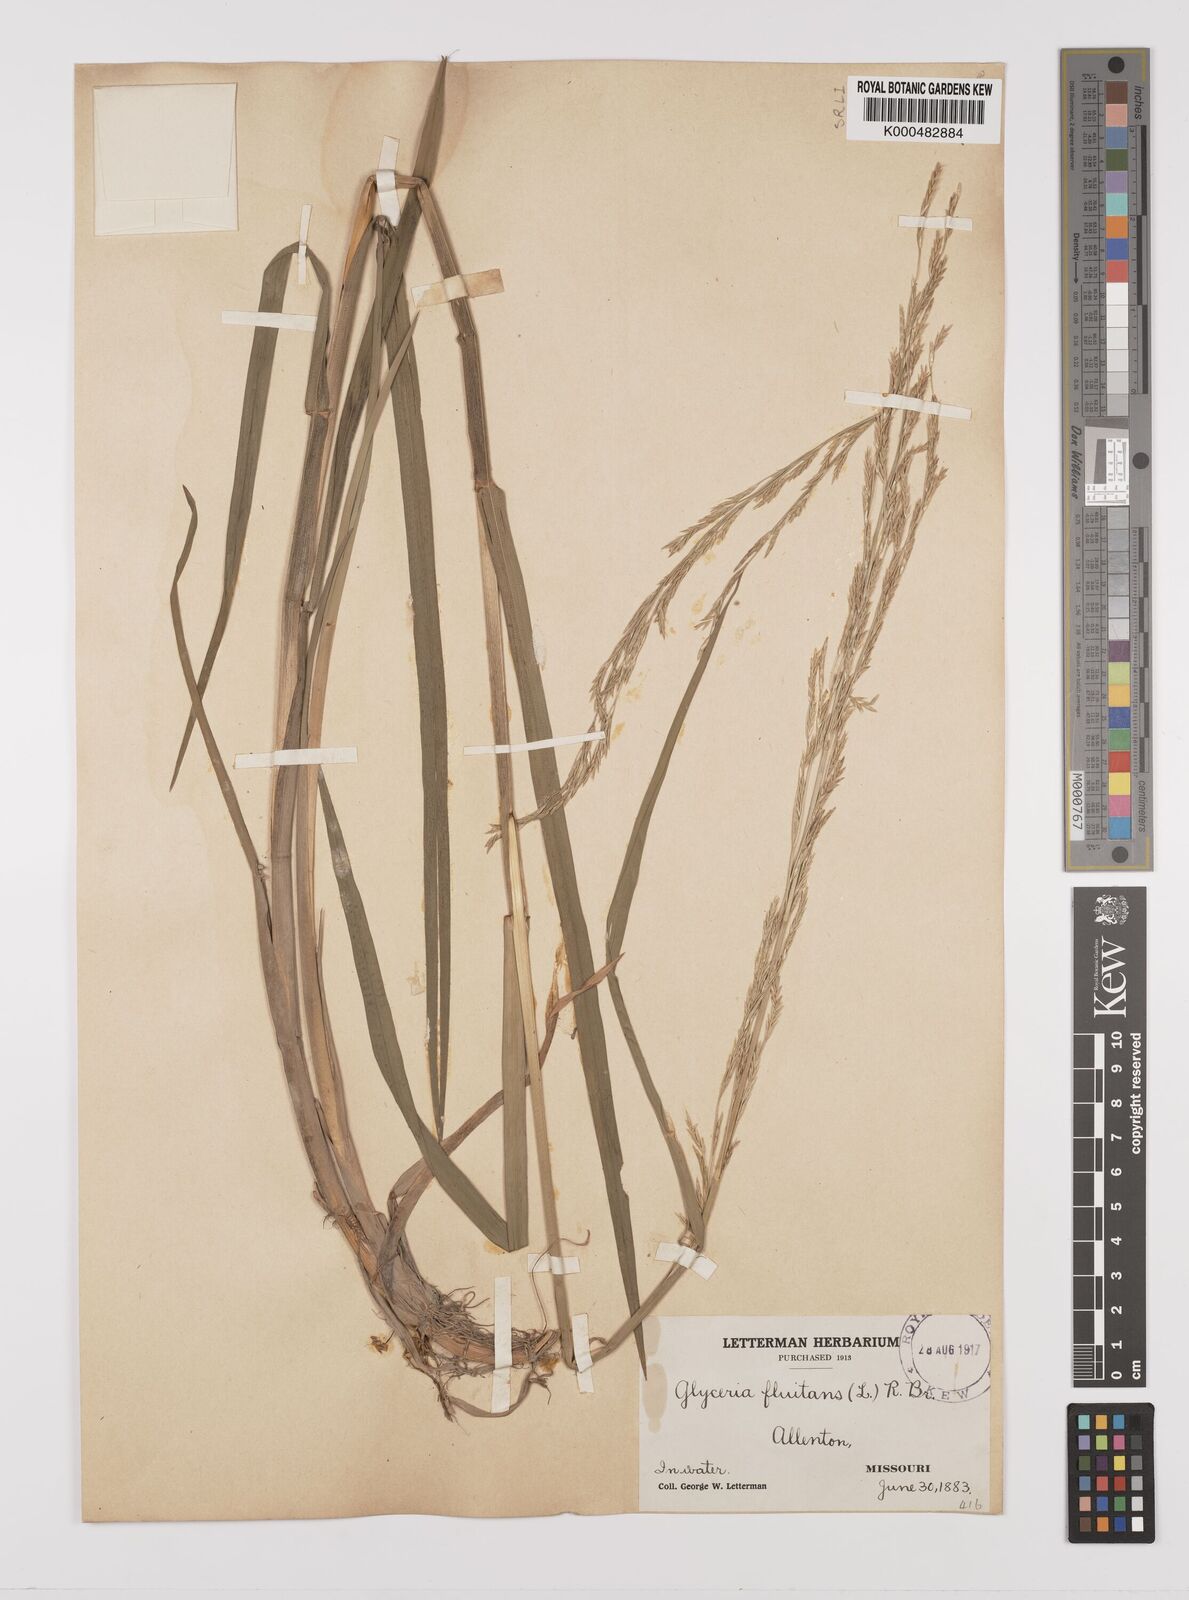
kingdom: Plantae
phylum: Tracheophyta
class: Liliopsida
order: Poales
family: Poaceae
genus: Glyceria
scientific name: Glyceria septentrionalis
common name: Eastern mannagrass
